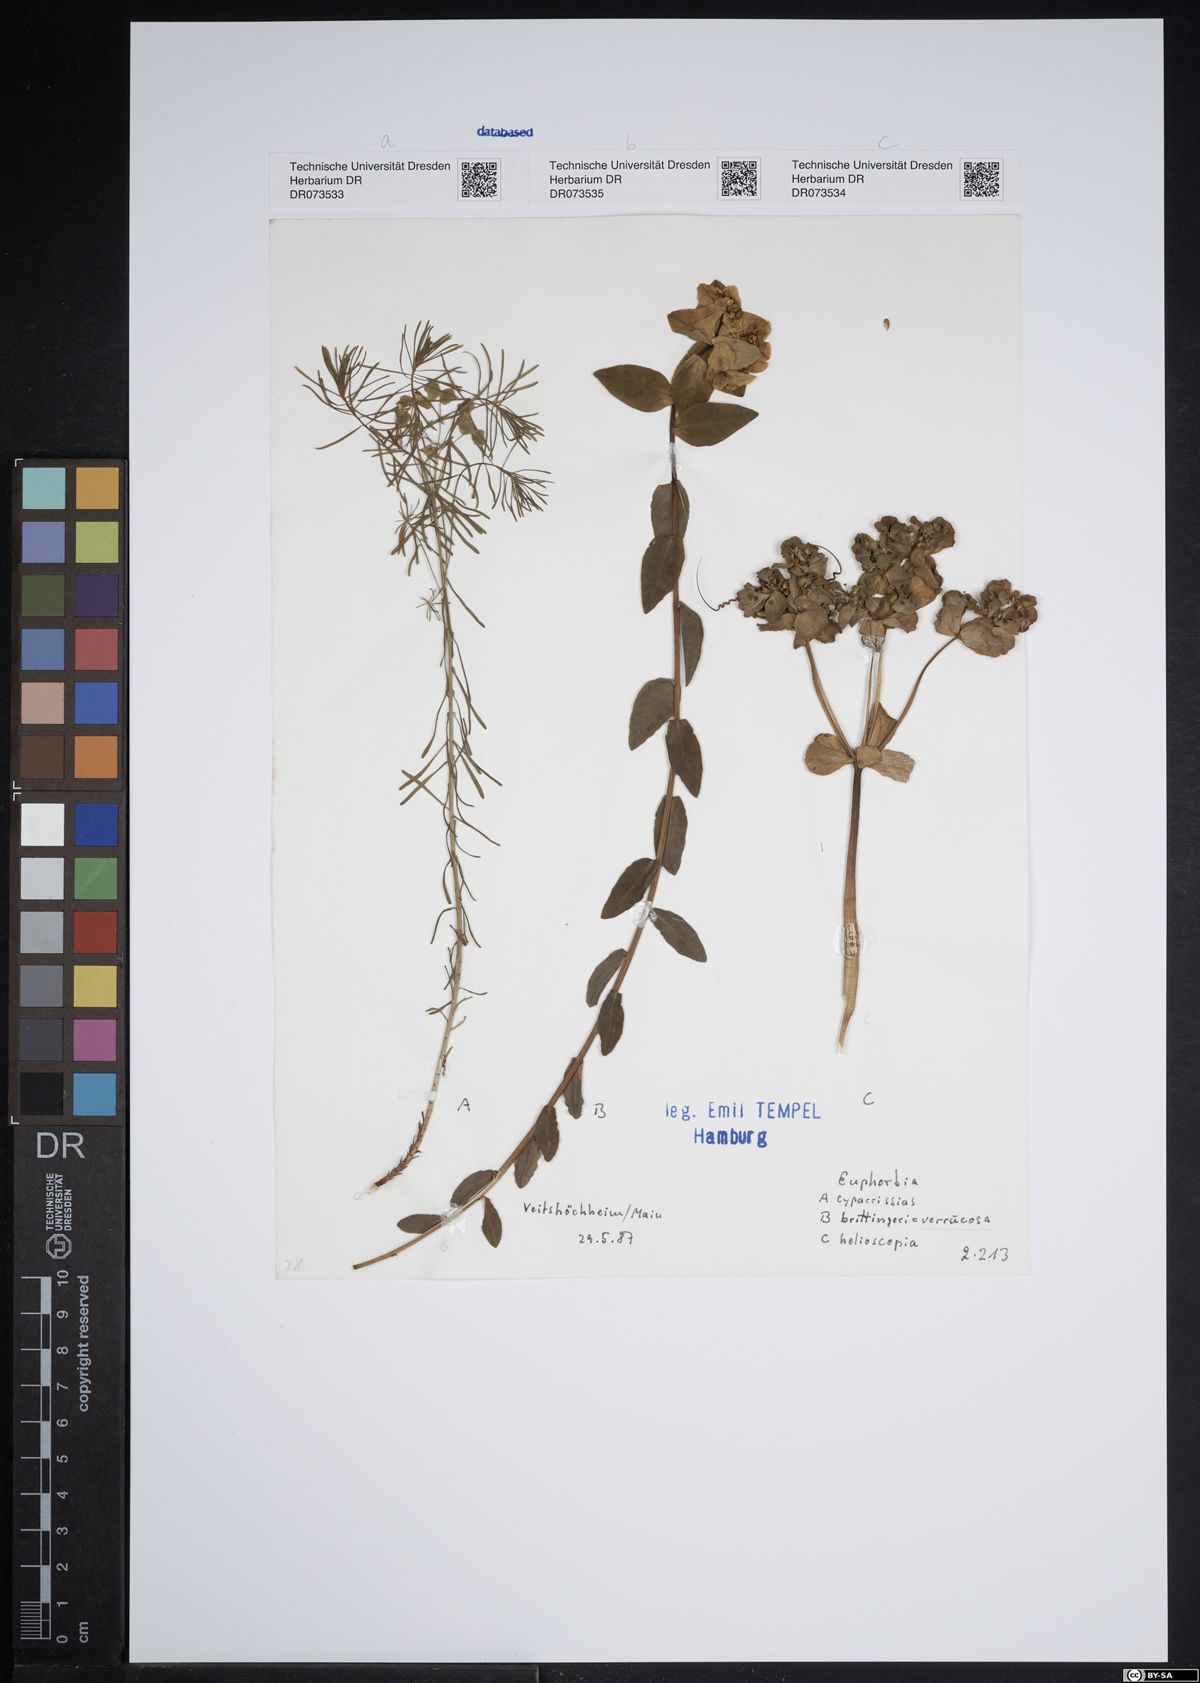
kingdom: Plantae
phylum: Tracheophyta
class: Magnoliopsida
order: Malpighiales
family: Euphorbiaceae
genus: Euphorbia
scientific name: Euphorbia cyparissias
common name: Cypress spurge
